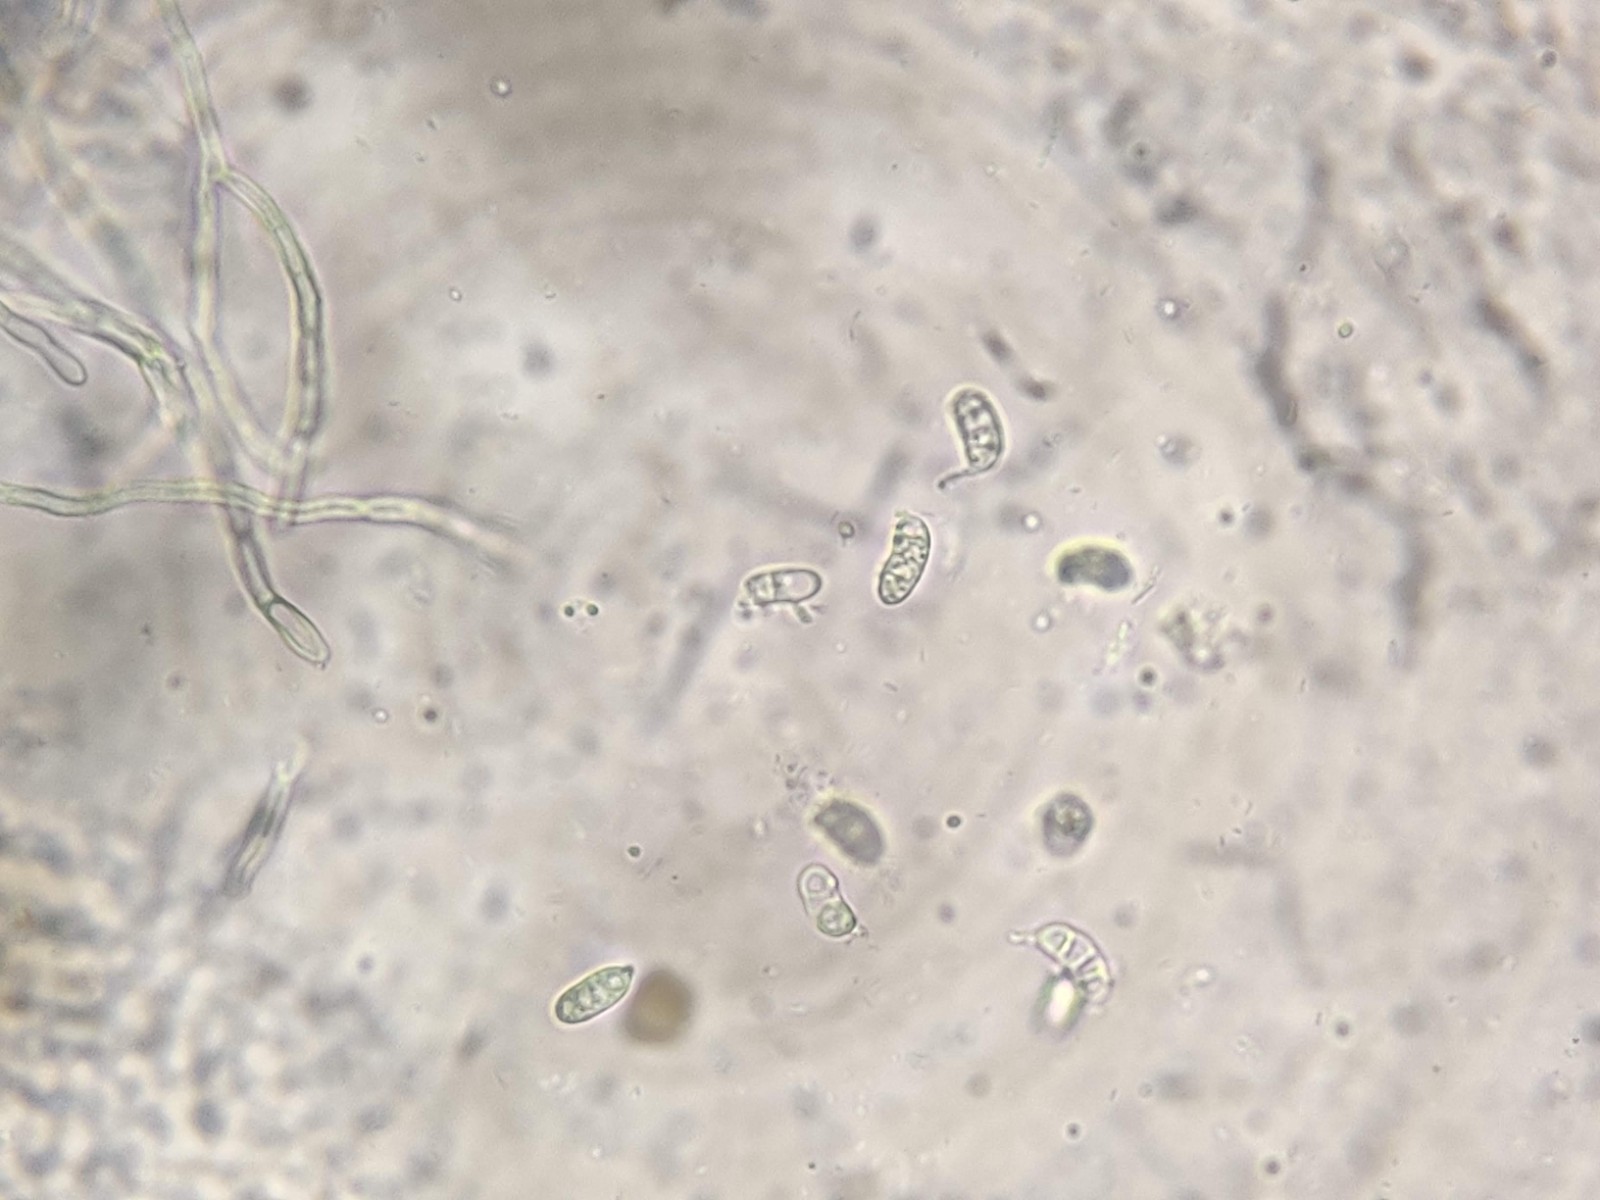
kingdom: Fungi
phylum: Basidiomycota
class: Dacrymycetes
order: Dacrymycetales
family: Dacrymycetaceae
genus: Dacrymyces
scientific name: Dacrymyces lacrymalis
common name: rynket tåresvamp
